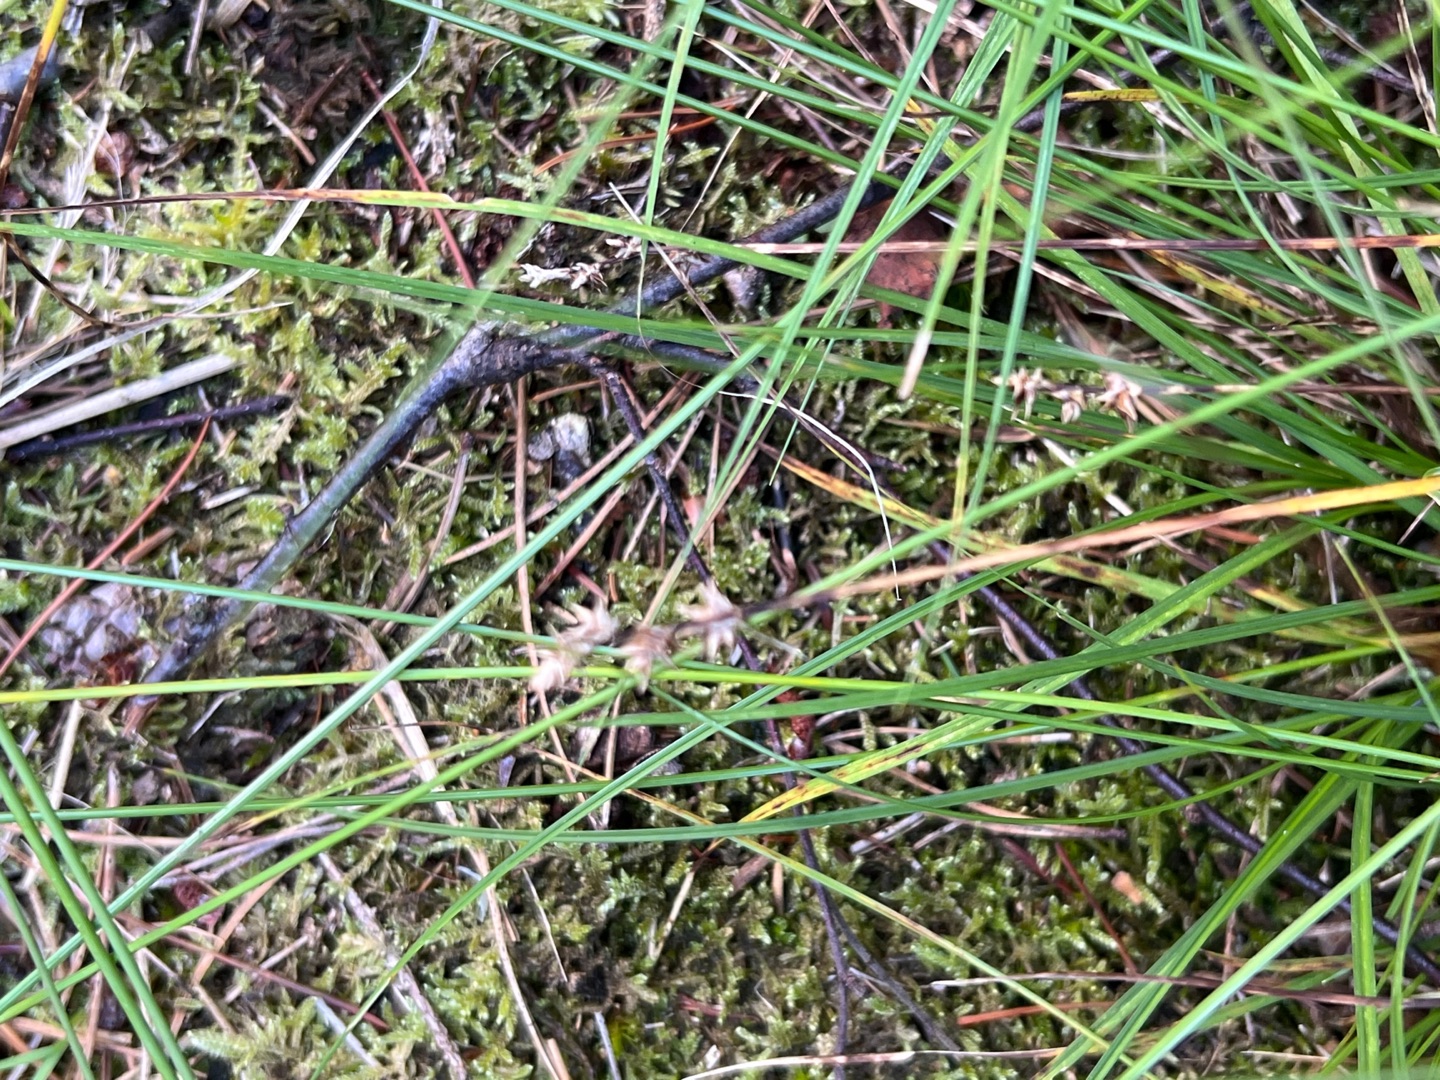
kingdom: Plantae
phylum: Tracheophyta
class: Liliopsida
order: Poales
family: Cyperaceae
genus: Carex
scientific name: Carex echinata
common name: Stjerne-star
